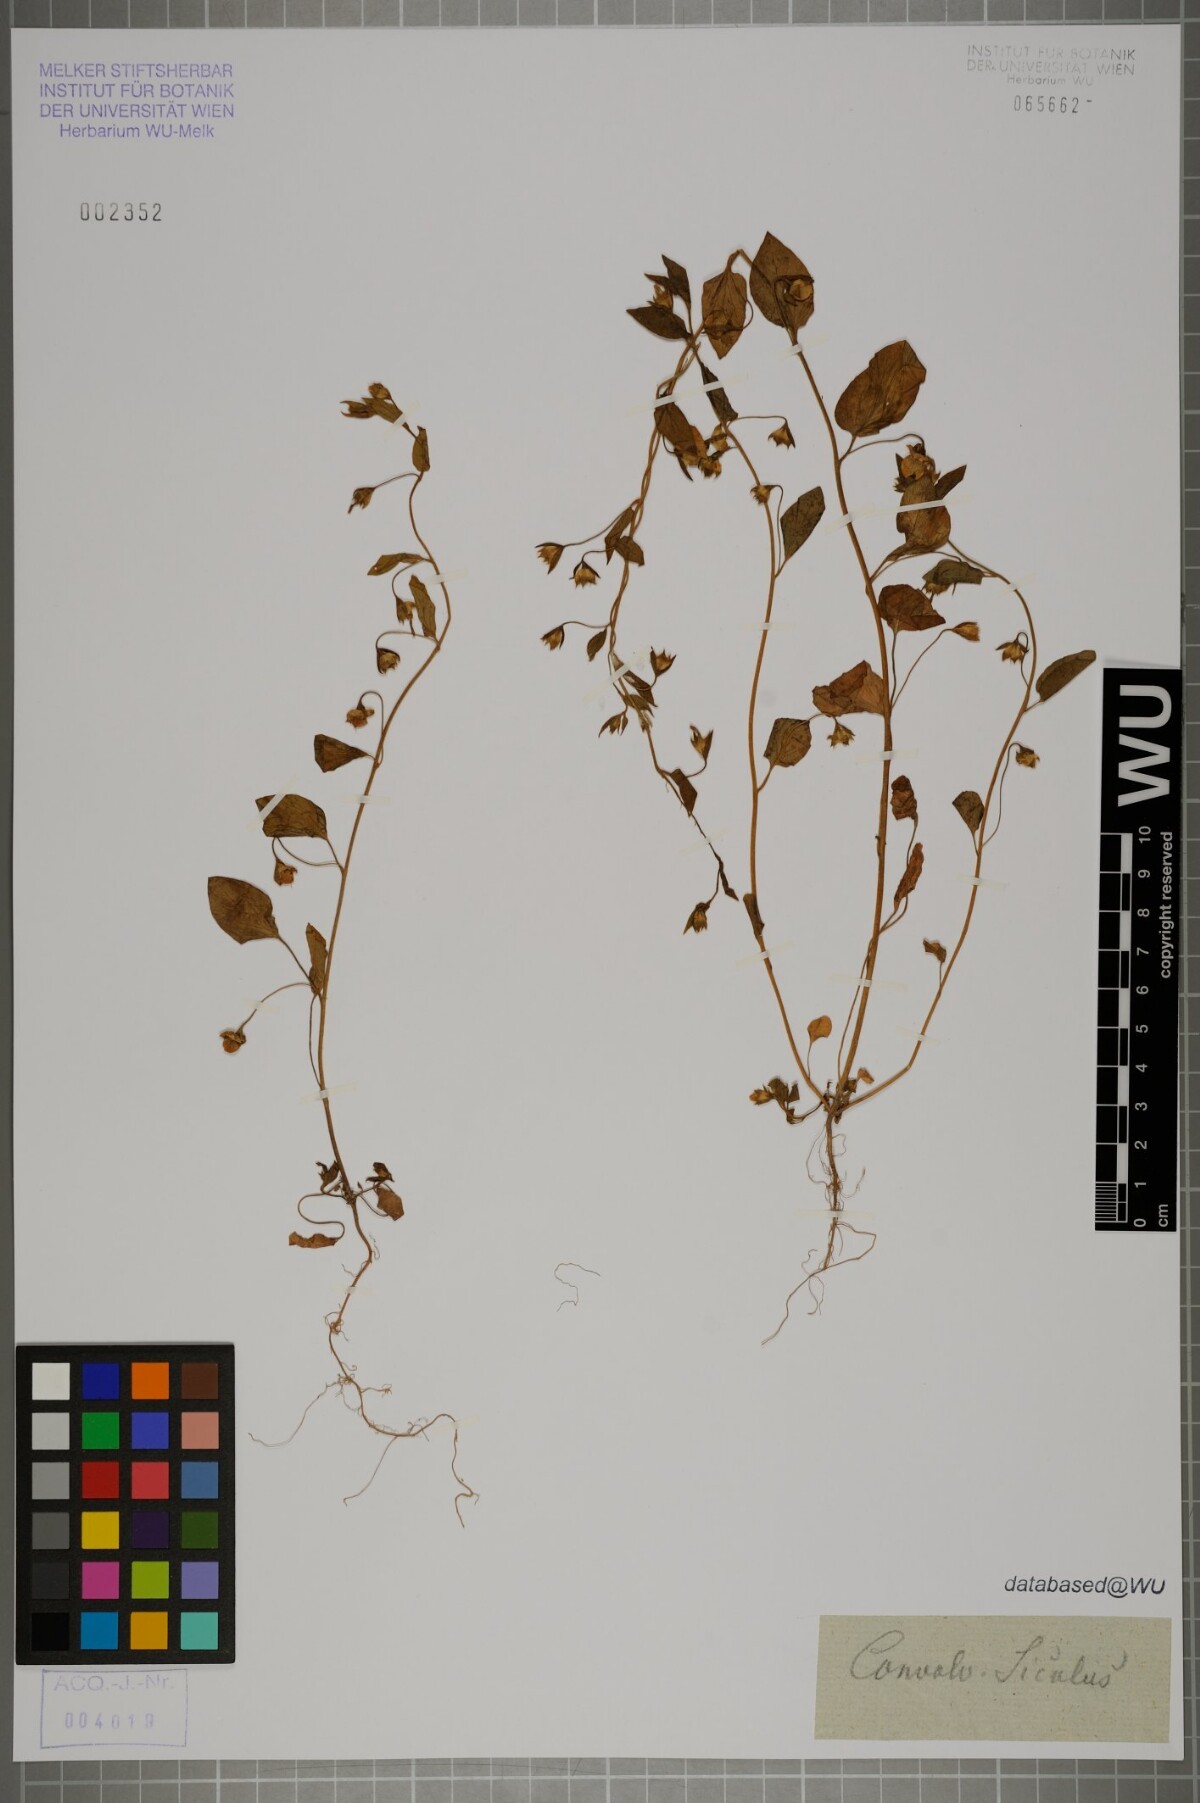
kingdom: Plantae
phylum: Tracheophyta
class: Magnoliopsida
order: Solanales
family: Convolvulaceae
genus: Convolvulus
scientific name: Convolvulus siculus
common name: Small blue-convolvulus
